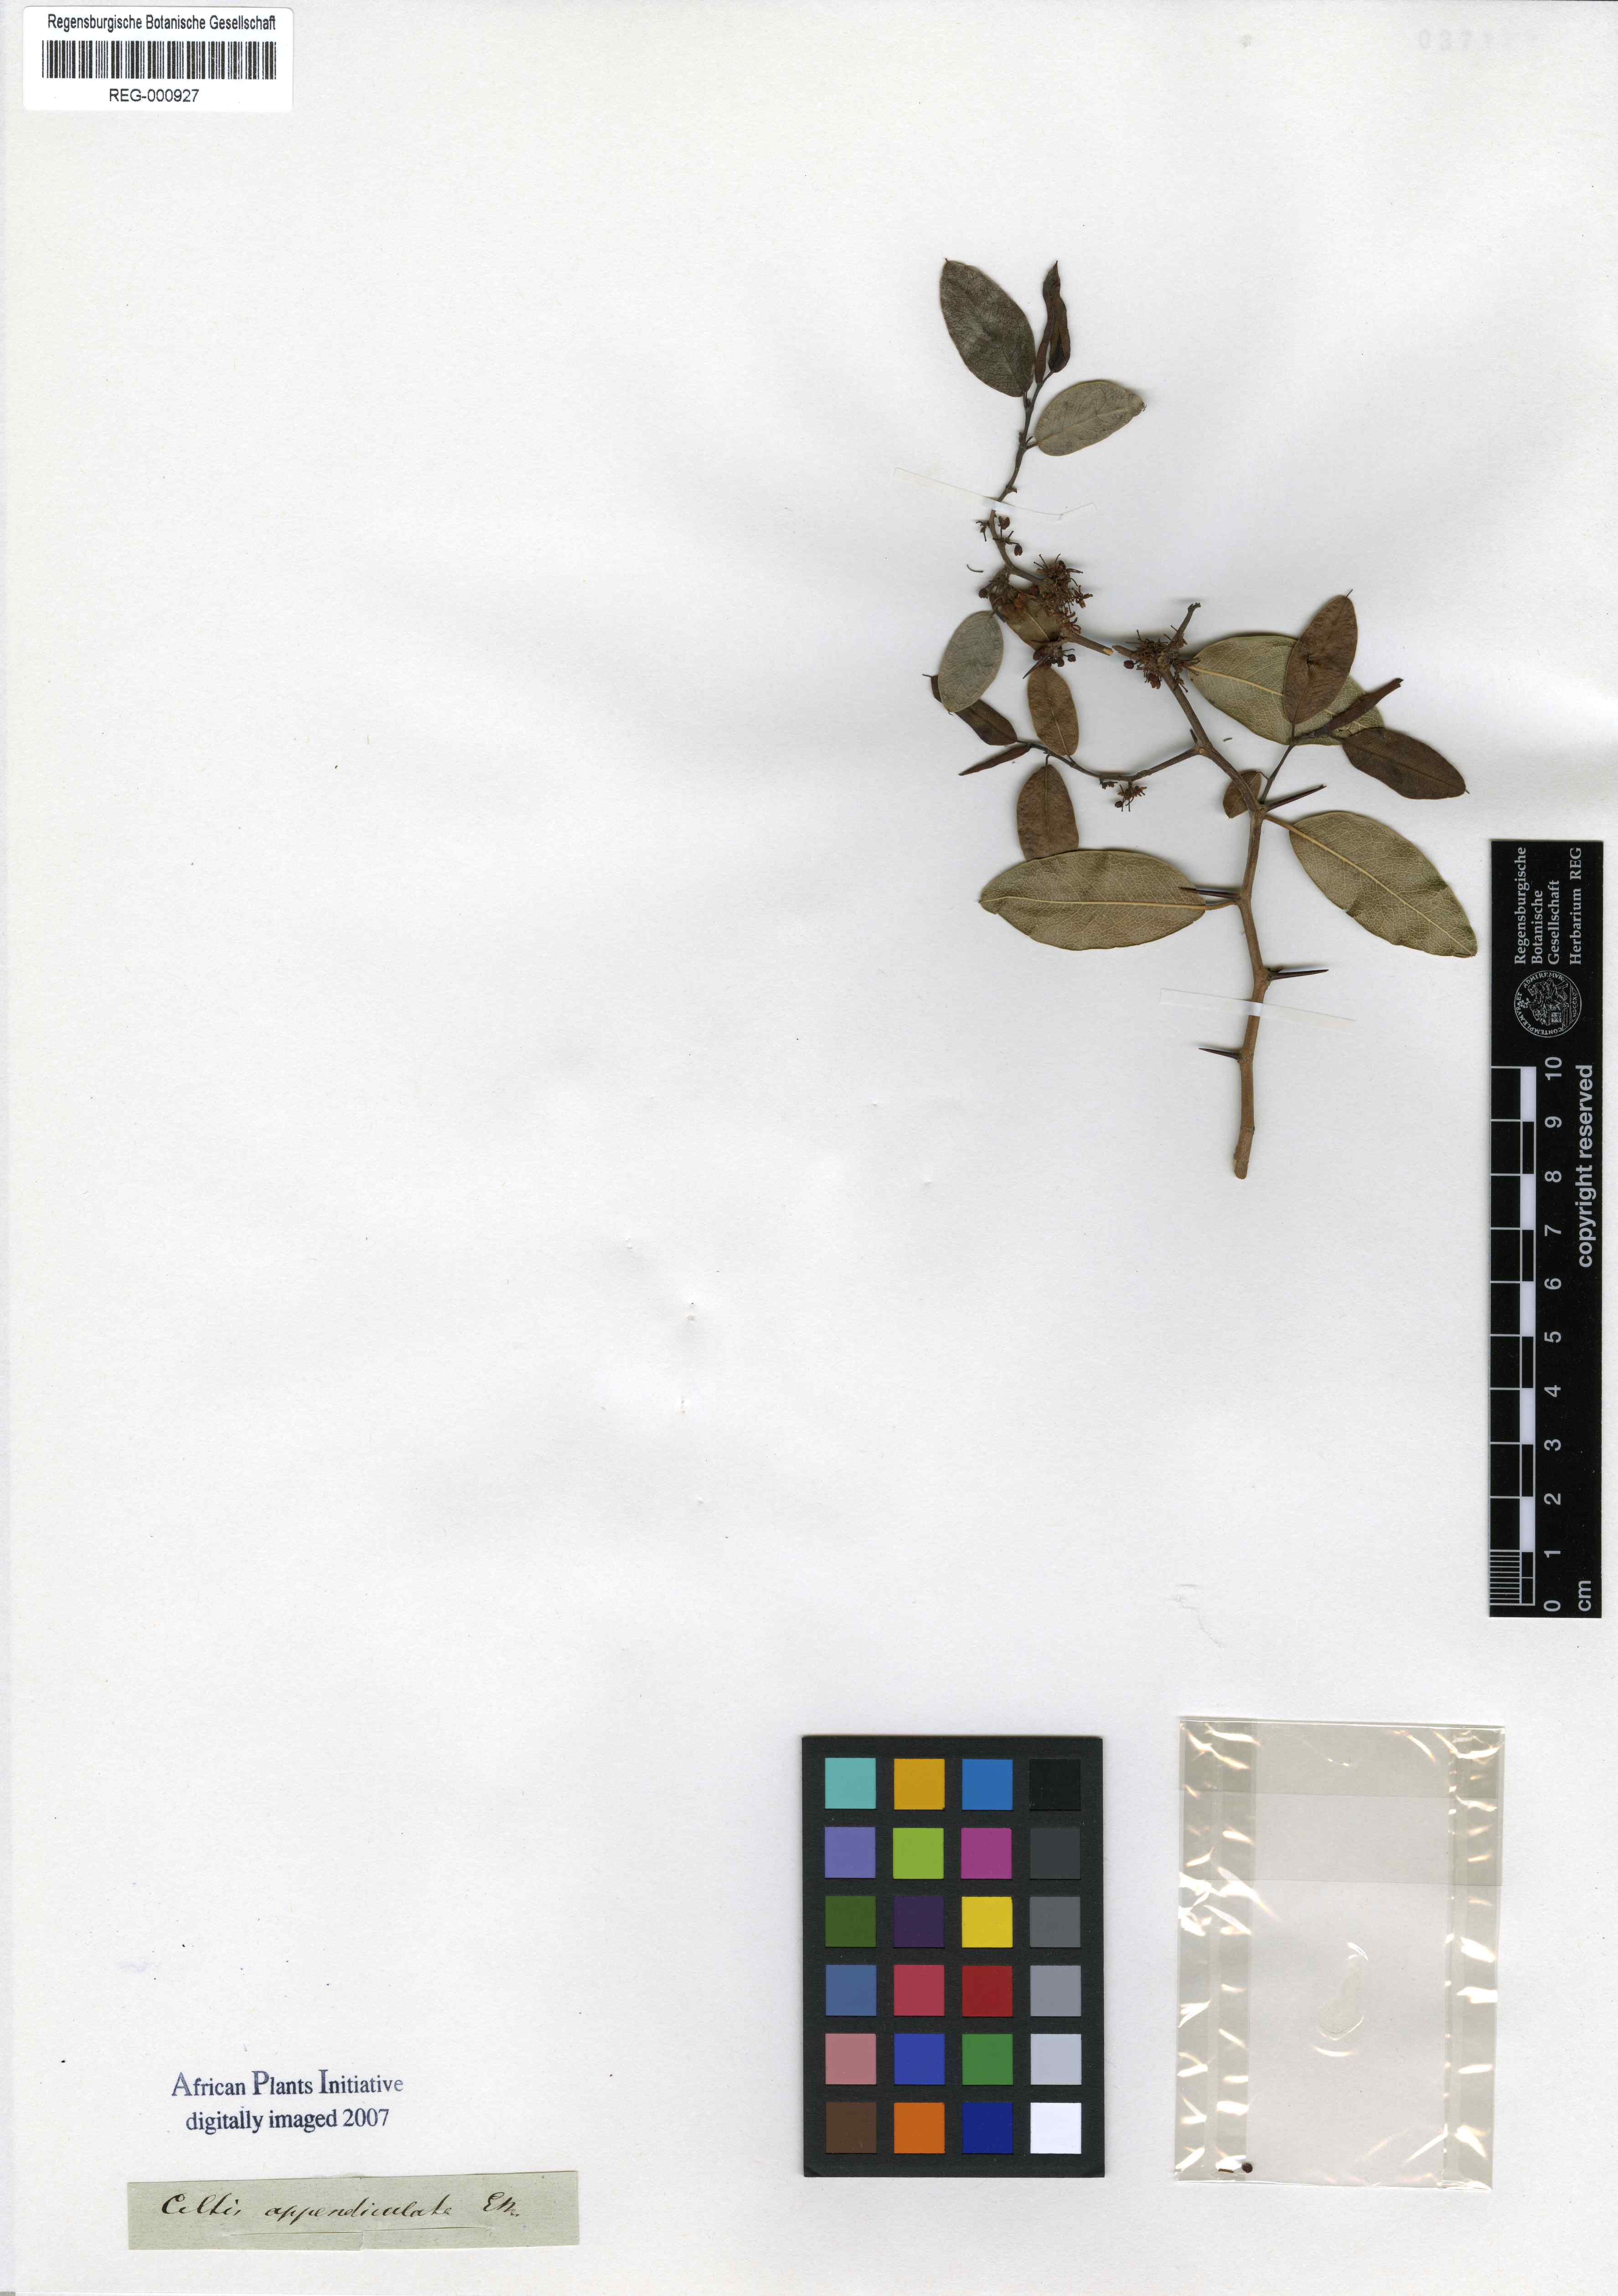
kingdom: Plantae
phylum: Tracheophyta
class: Magnoliopsida
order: Rosales
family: Cannabaceae
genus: Chaetachme
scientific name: Chaetachme aristata
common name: Thorny elm
